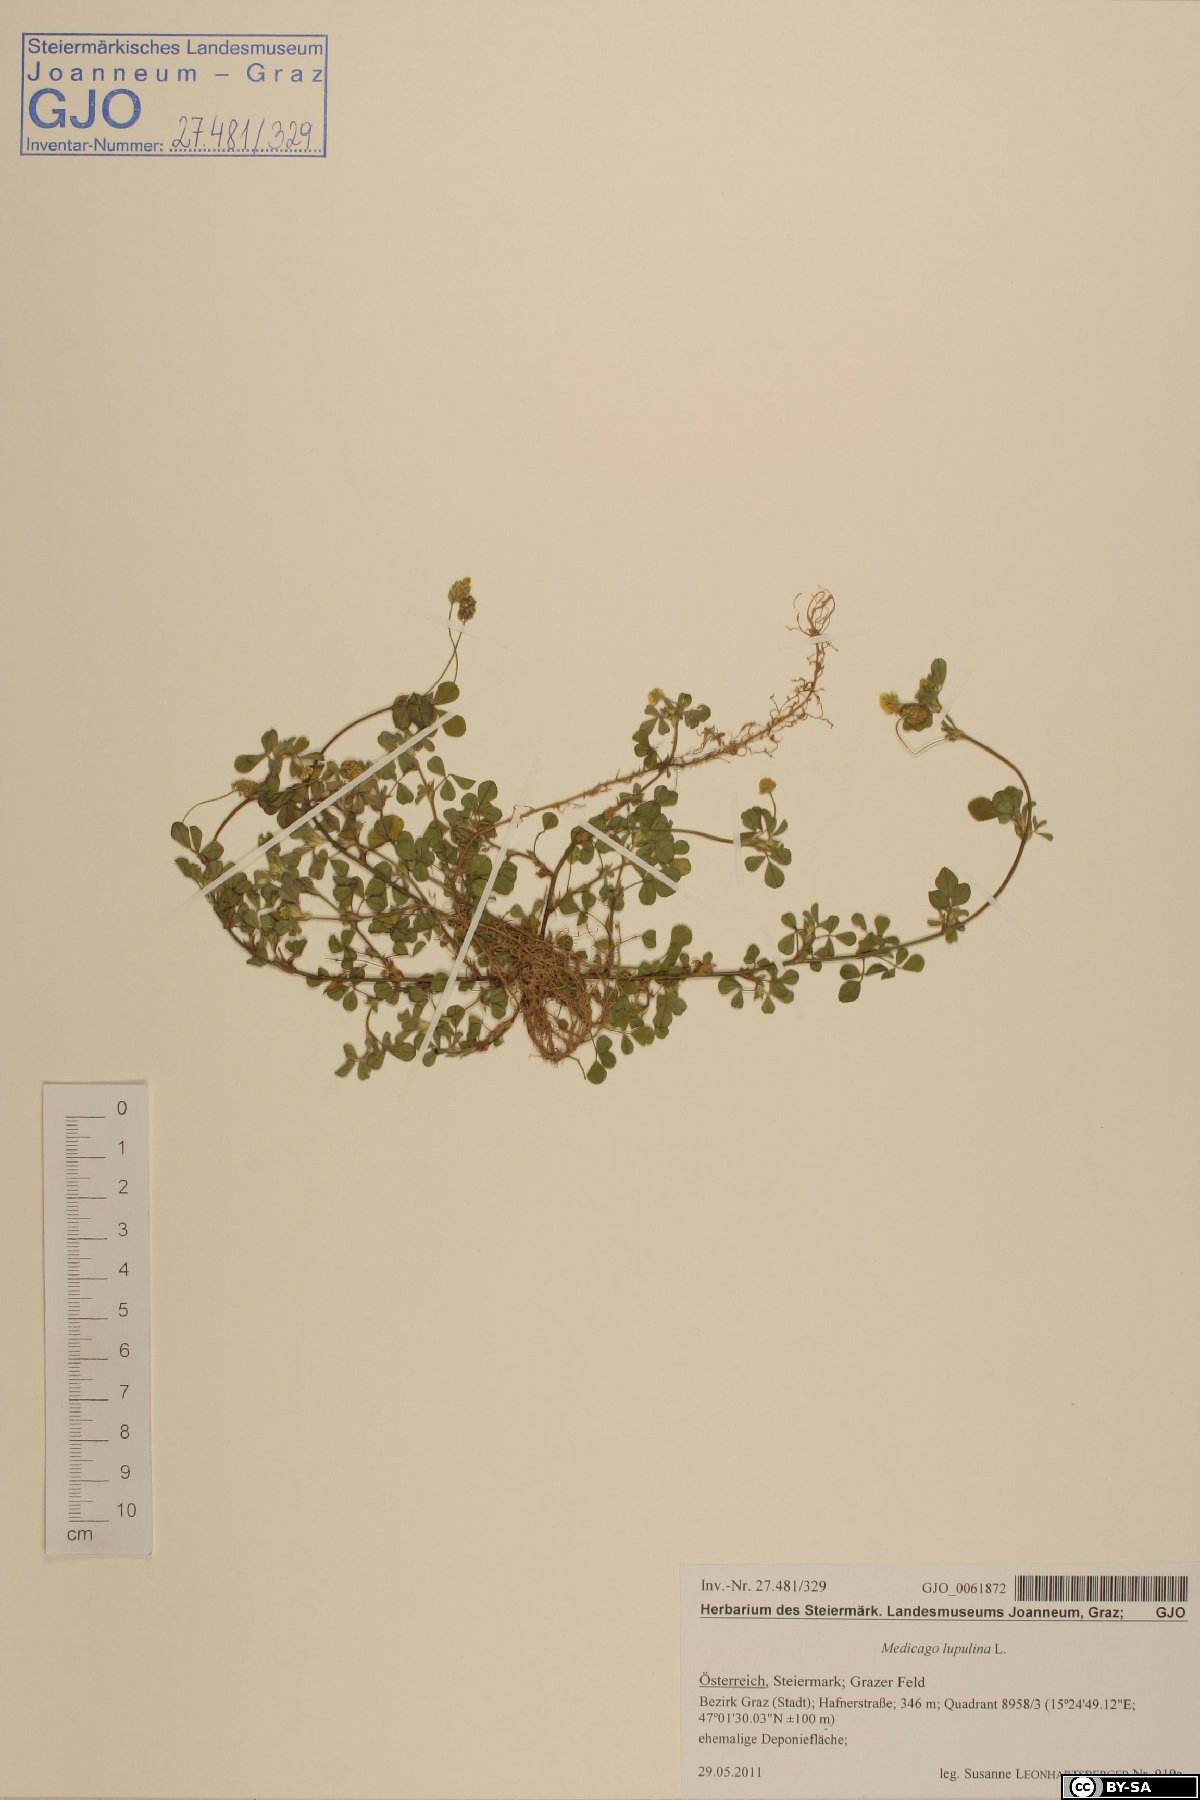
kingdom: Plantae
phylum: Tracheophyta
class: Magnoliopsida
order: Fabales
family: Fabaceae
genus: Medicago
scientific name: Medicago lupulina
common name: Black medick
